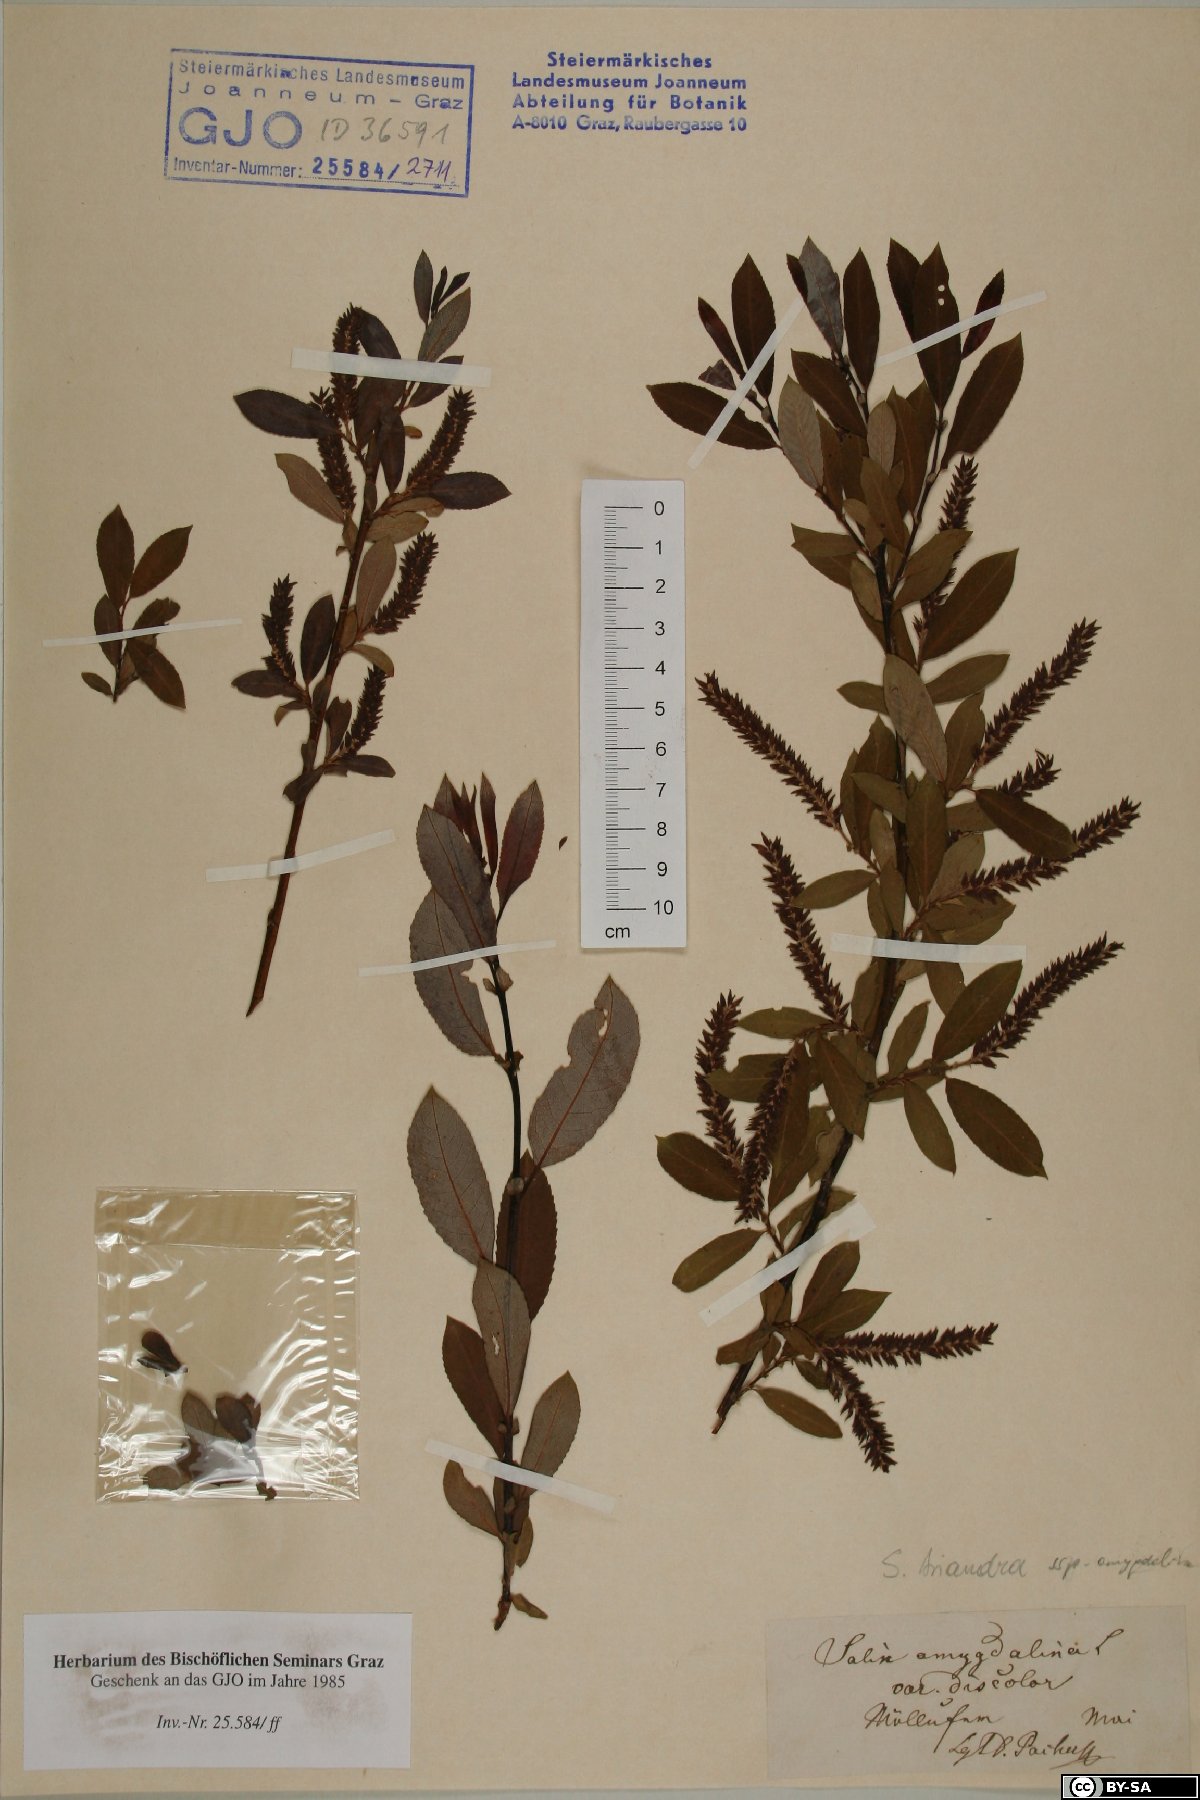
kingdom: Plantae
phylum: Tracheophyta
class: Magnoliopsida
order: Malpighiales
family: Salicaceae
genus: Salix
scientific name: Salix triandra
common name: Almond willow
